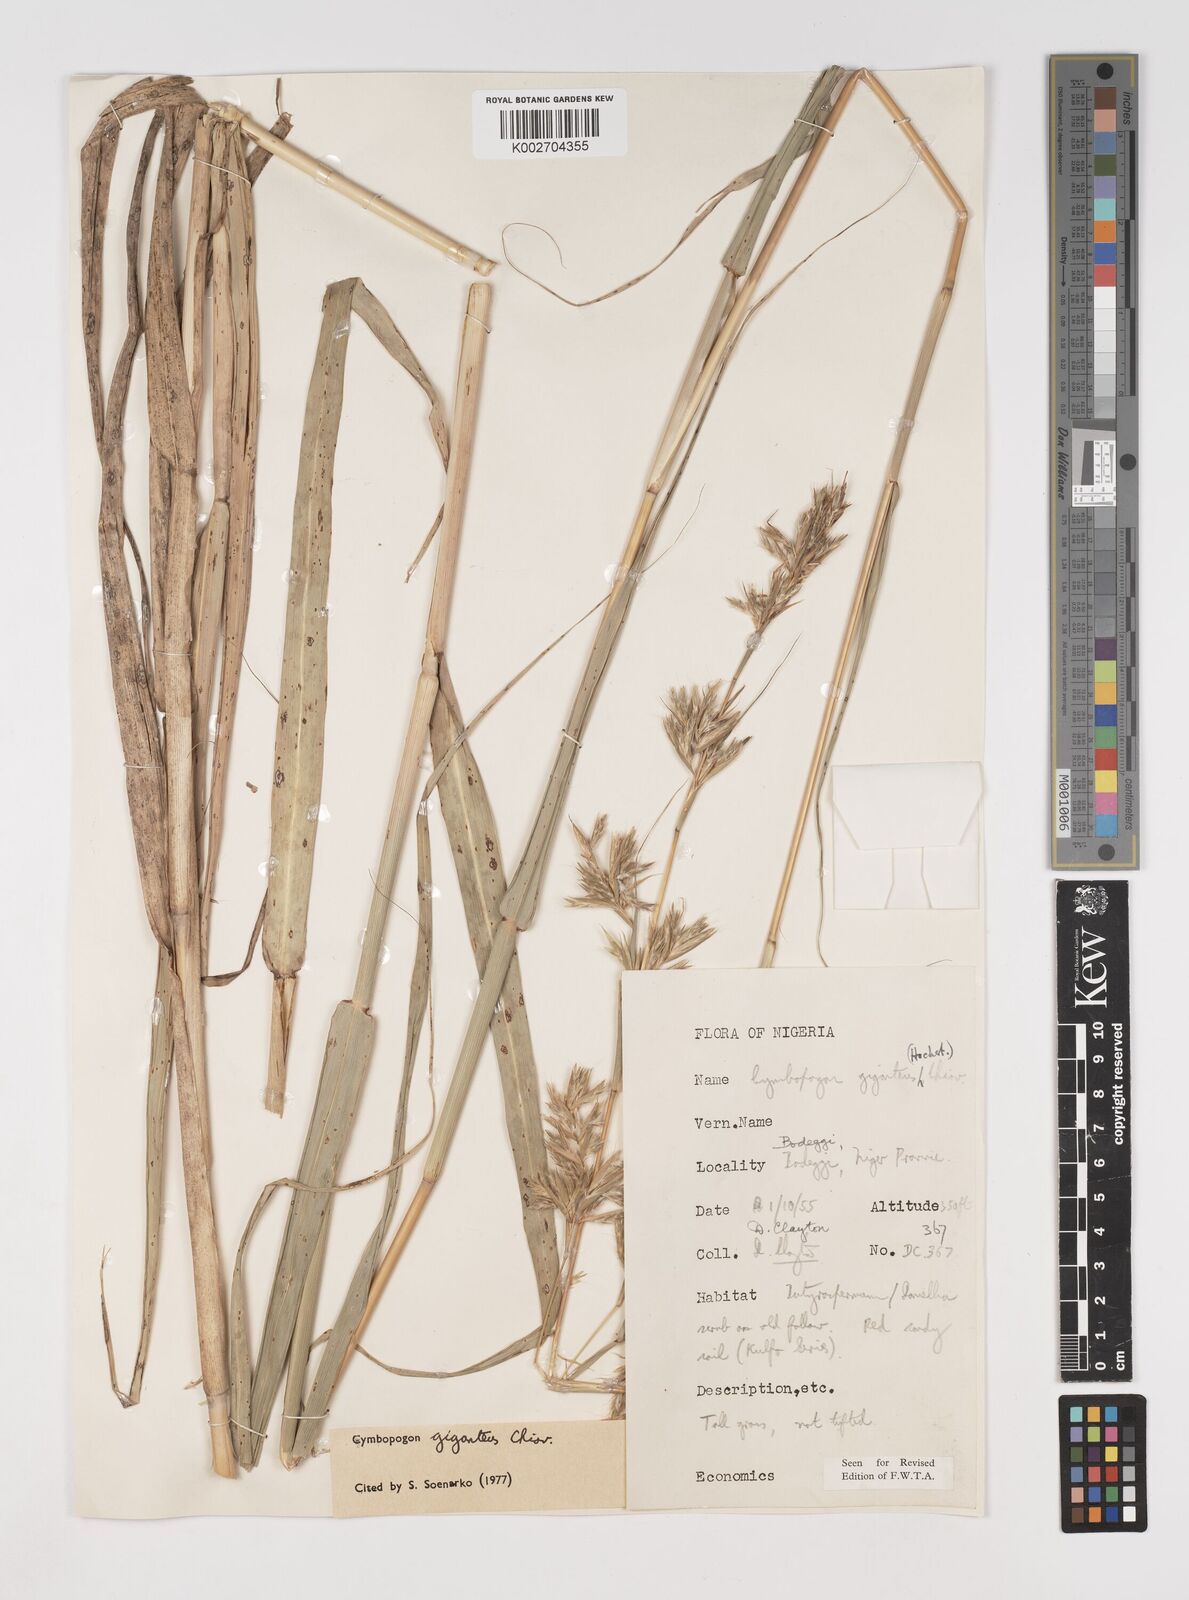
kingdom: Plantae
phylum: Tracheophyta
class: Liliopsida
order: Poales
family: Poaceae
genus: Cymbopogon
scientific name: Cymbopogon giganteus
